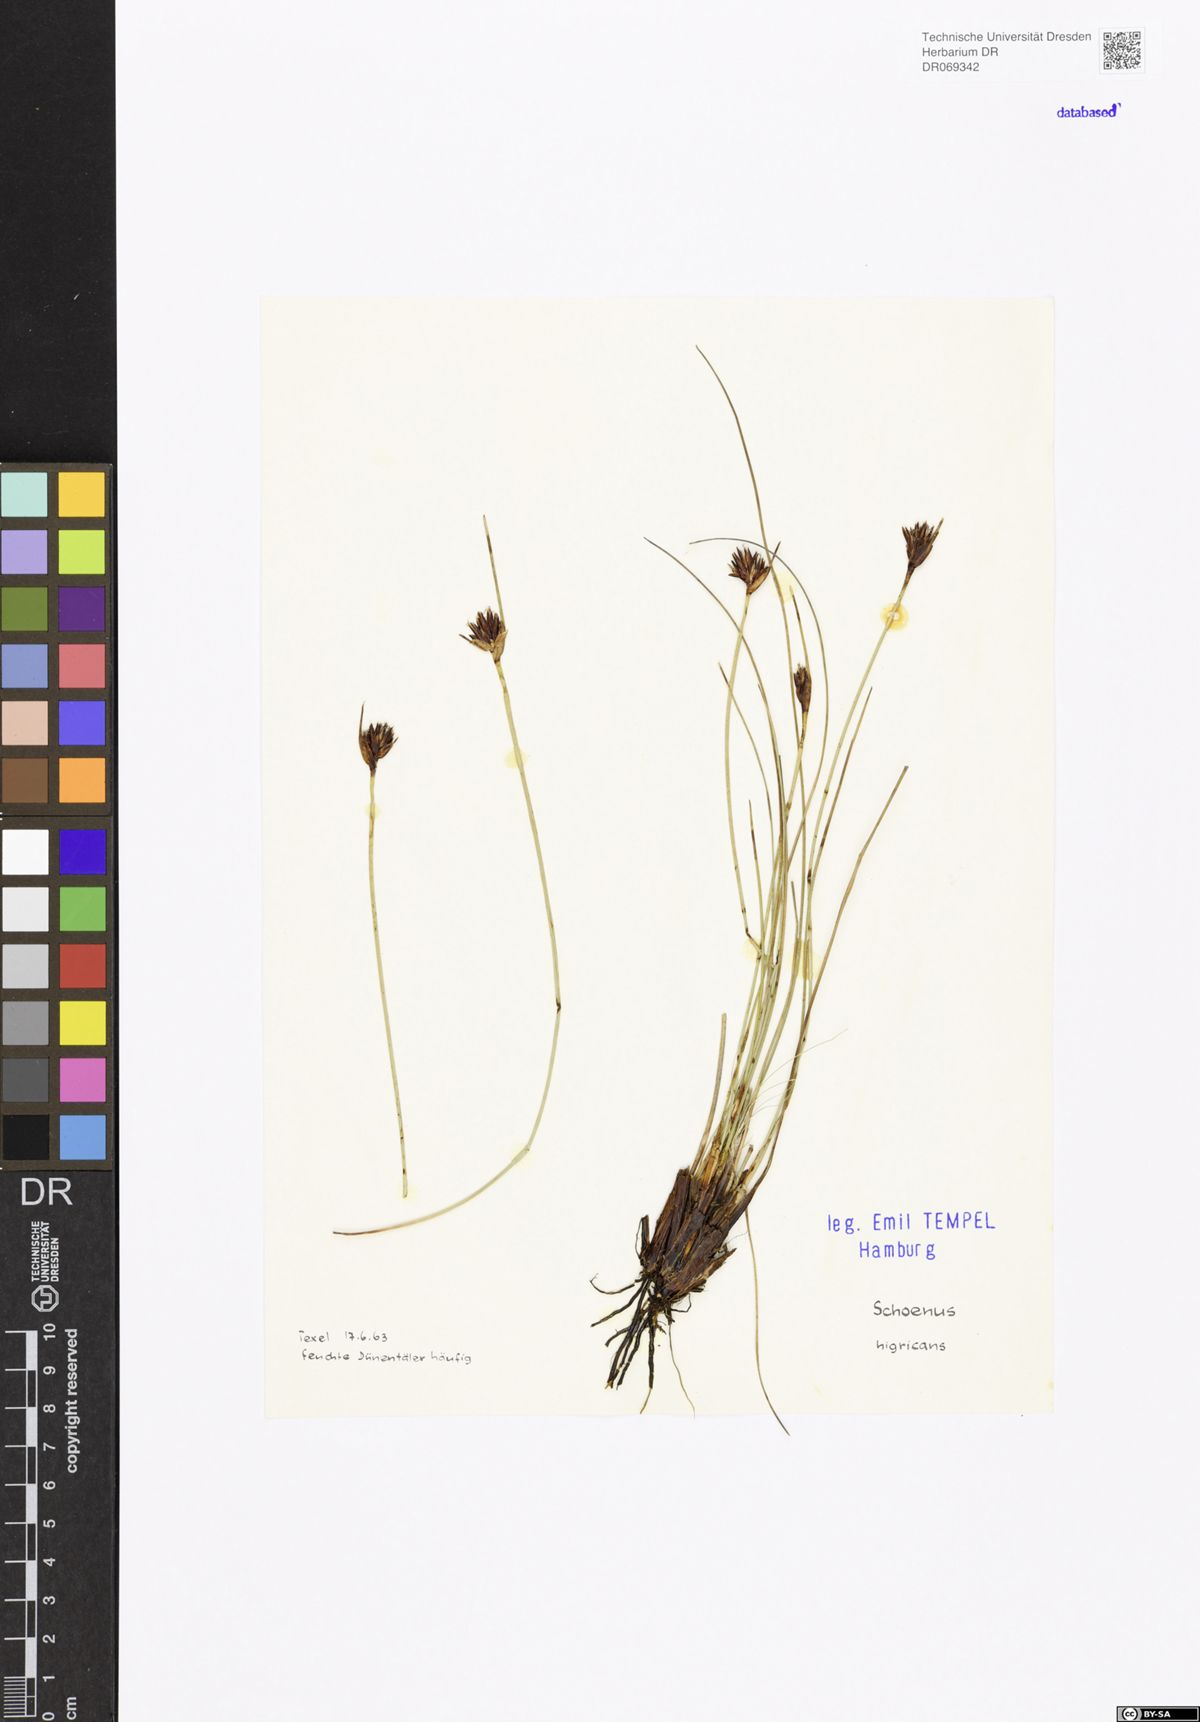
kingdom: Plantae
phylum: Tracheophyta
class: Liliopsida
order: Poales
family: Cyperaceae
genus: Schoenus
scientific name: Schoenus nigricans
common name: Black bog-rush
